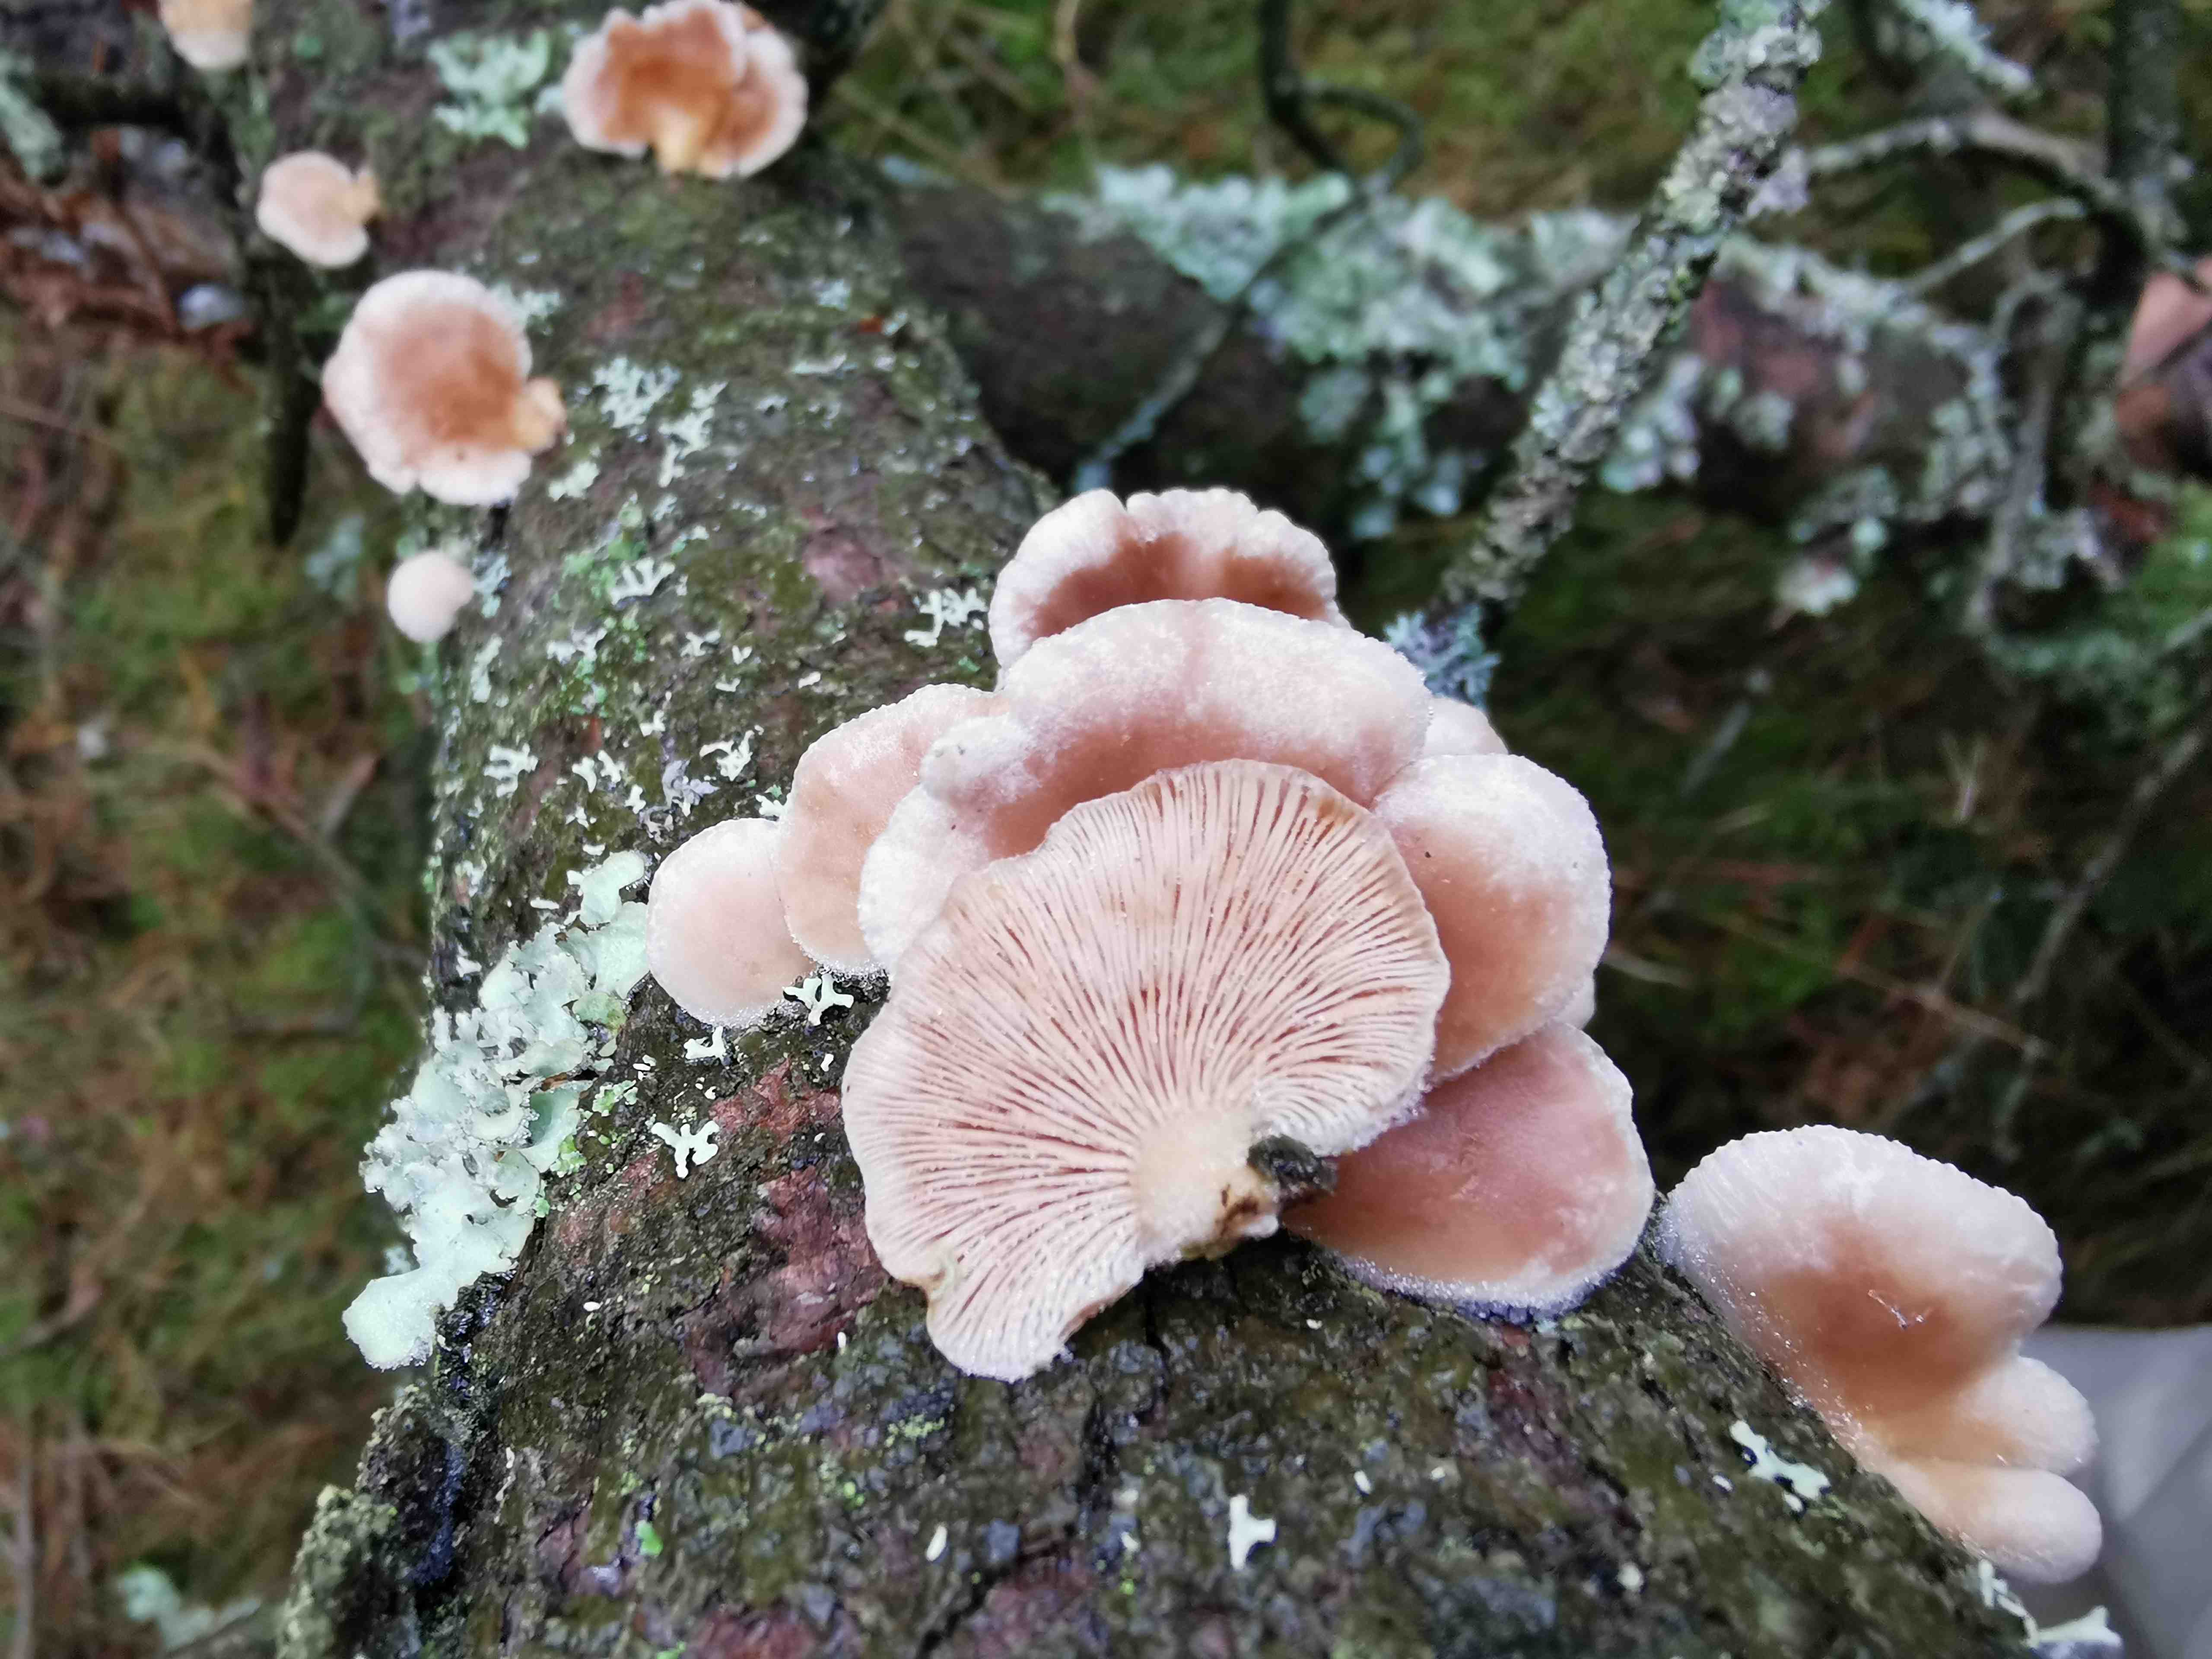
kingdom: Fungi
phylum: Basidiomycota
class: Agaricomycetes
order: Agaricales
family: Mycenaceae
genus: Panellus
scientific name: Panellus mitis
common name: mild epaulethat
